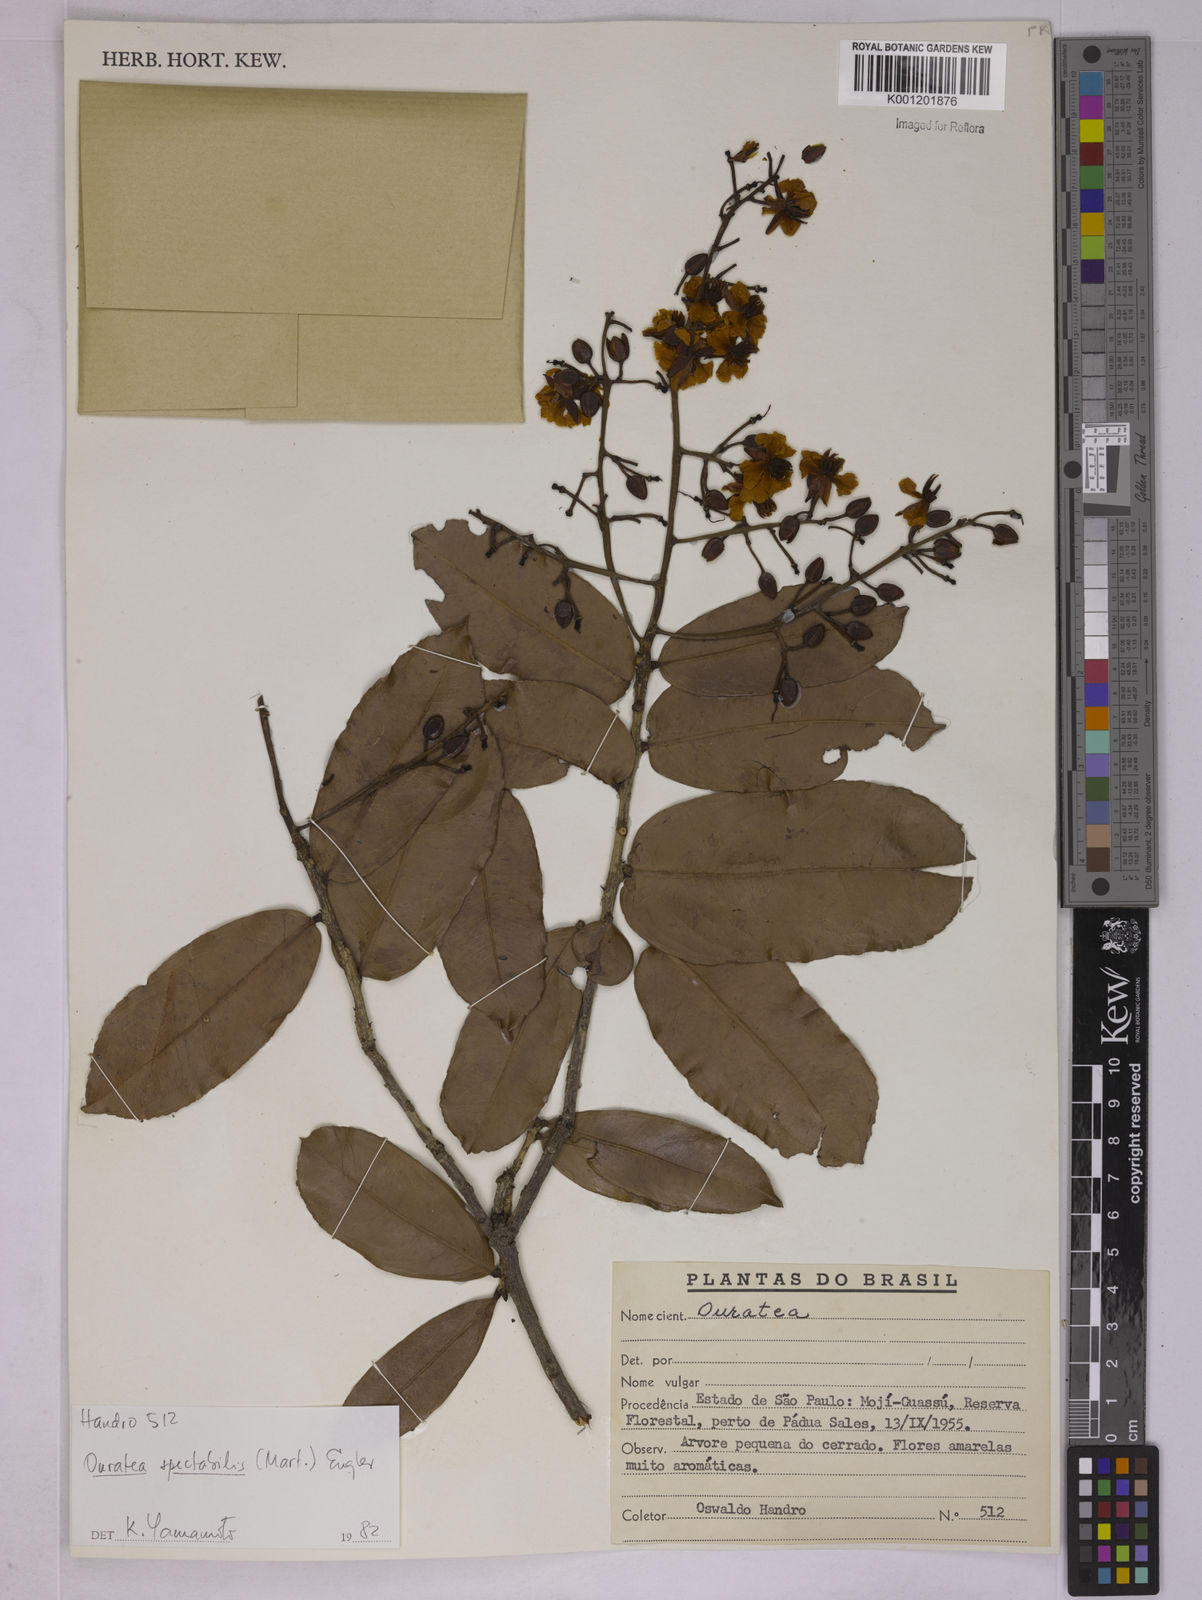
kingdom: Plantae
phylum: Tracheophyta
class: Magnoliopsida
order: Malpighiales
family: Ochnaceae
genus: Ouratea
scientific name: Ouratea spectabilis
